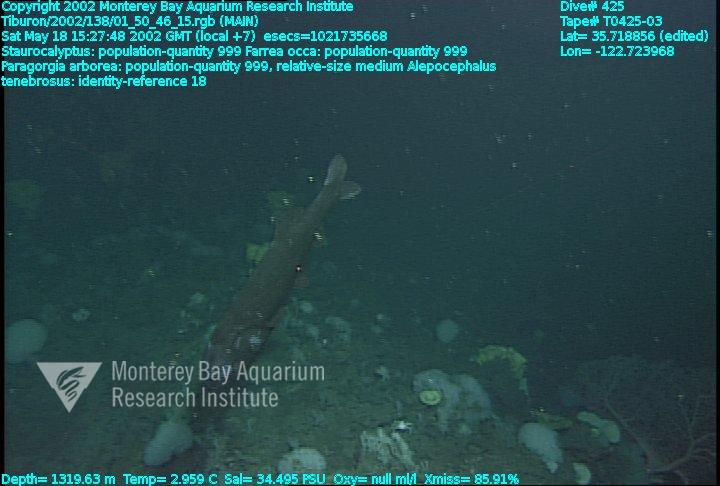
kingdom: Animalia
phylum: Porifera
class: Hexactinellida
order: Lyssacinosida
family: Rossellidae
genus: Staurocalyptus
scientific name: Staurocalyptus
